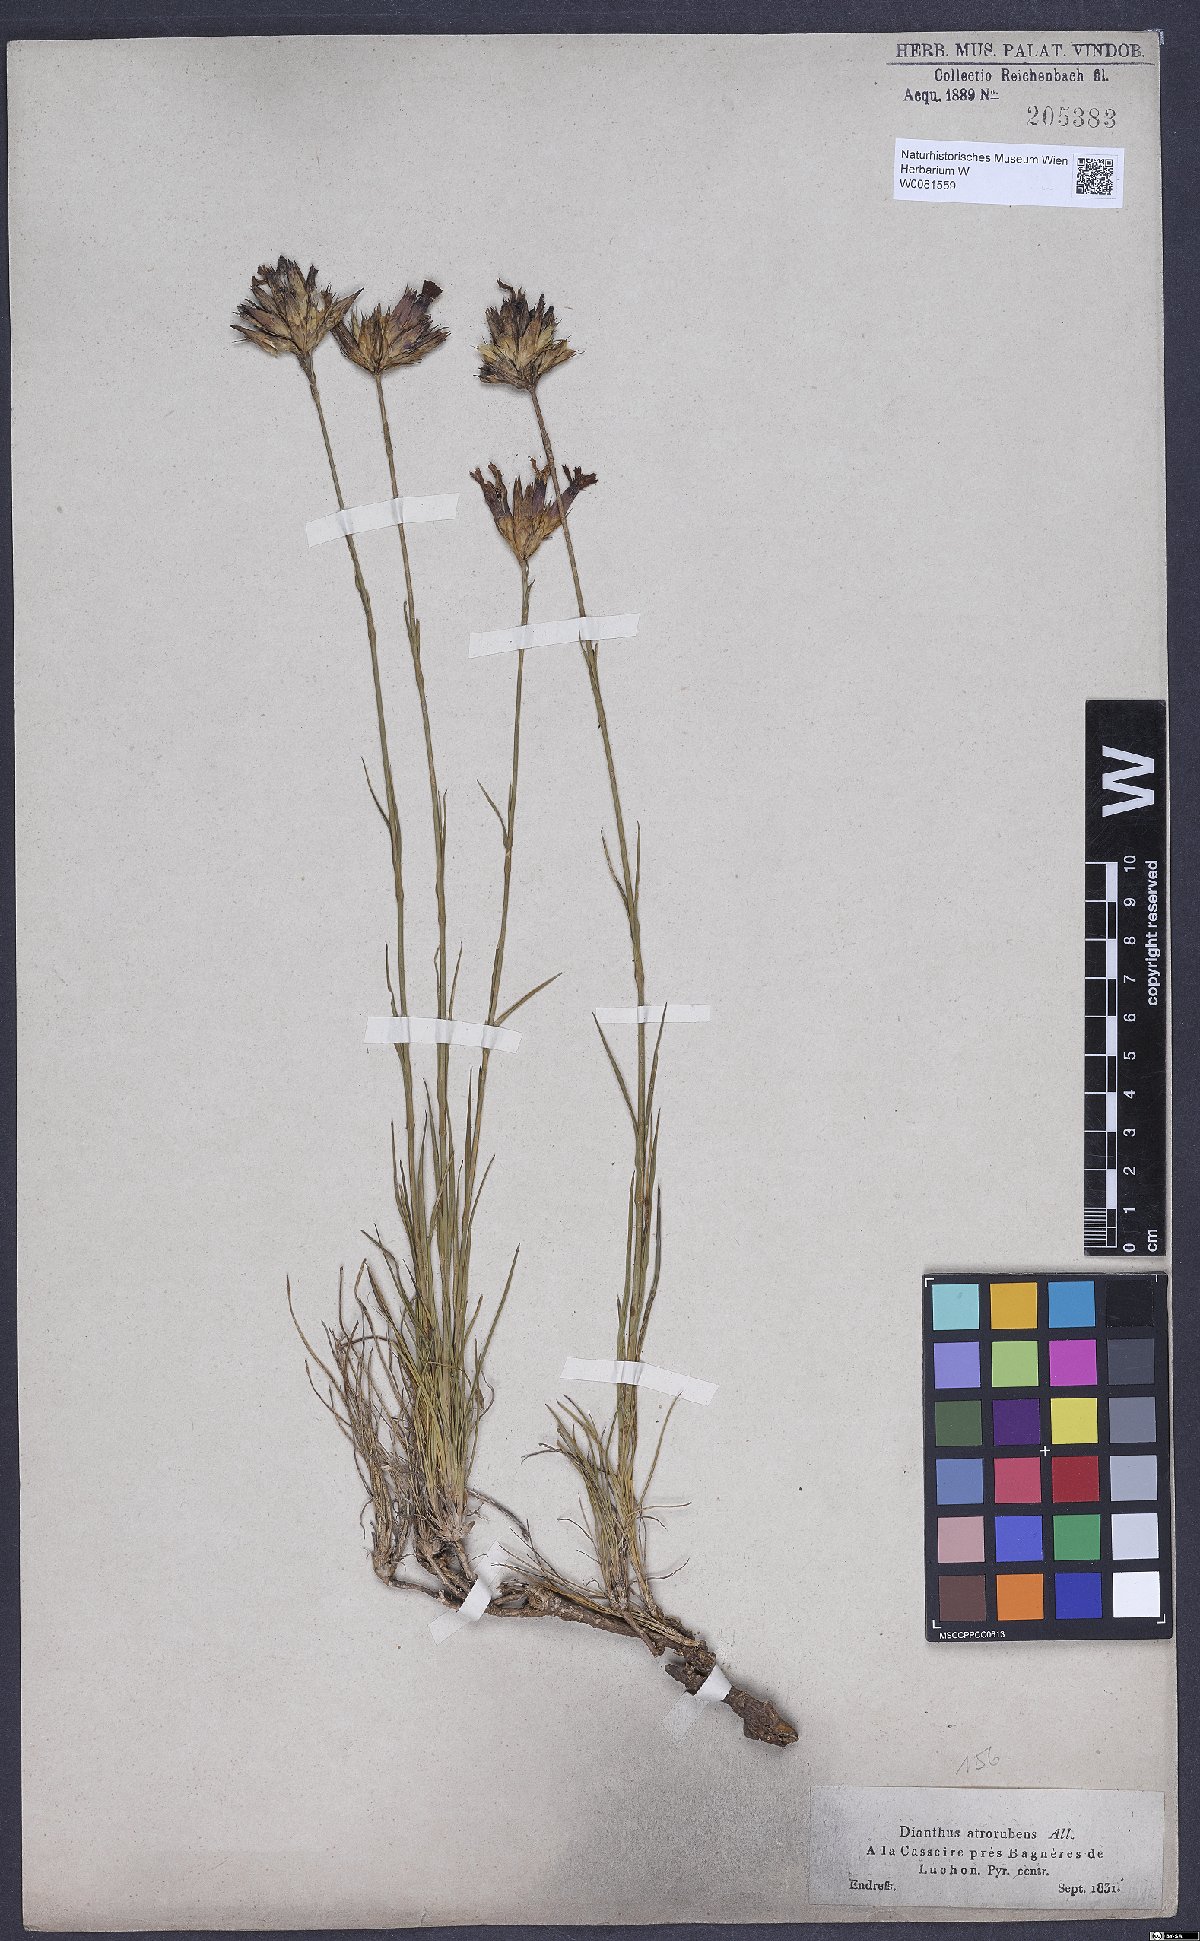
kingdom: Plantae
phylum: Tracheophyta
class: Magnoliopsida
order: Caryophyllales
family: Caryophyllaceae
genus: Dianthus
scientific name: Dianthus carthusianorum
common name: Carthusian pink
